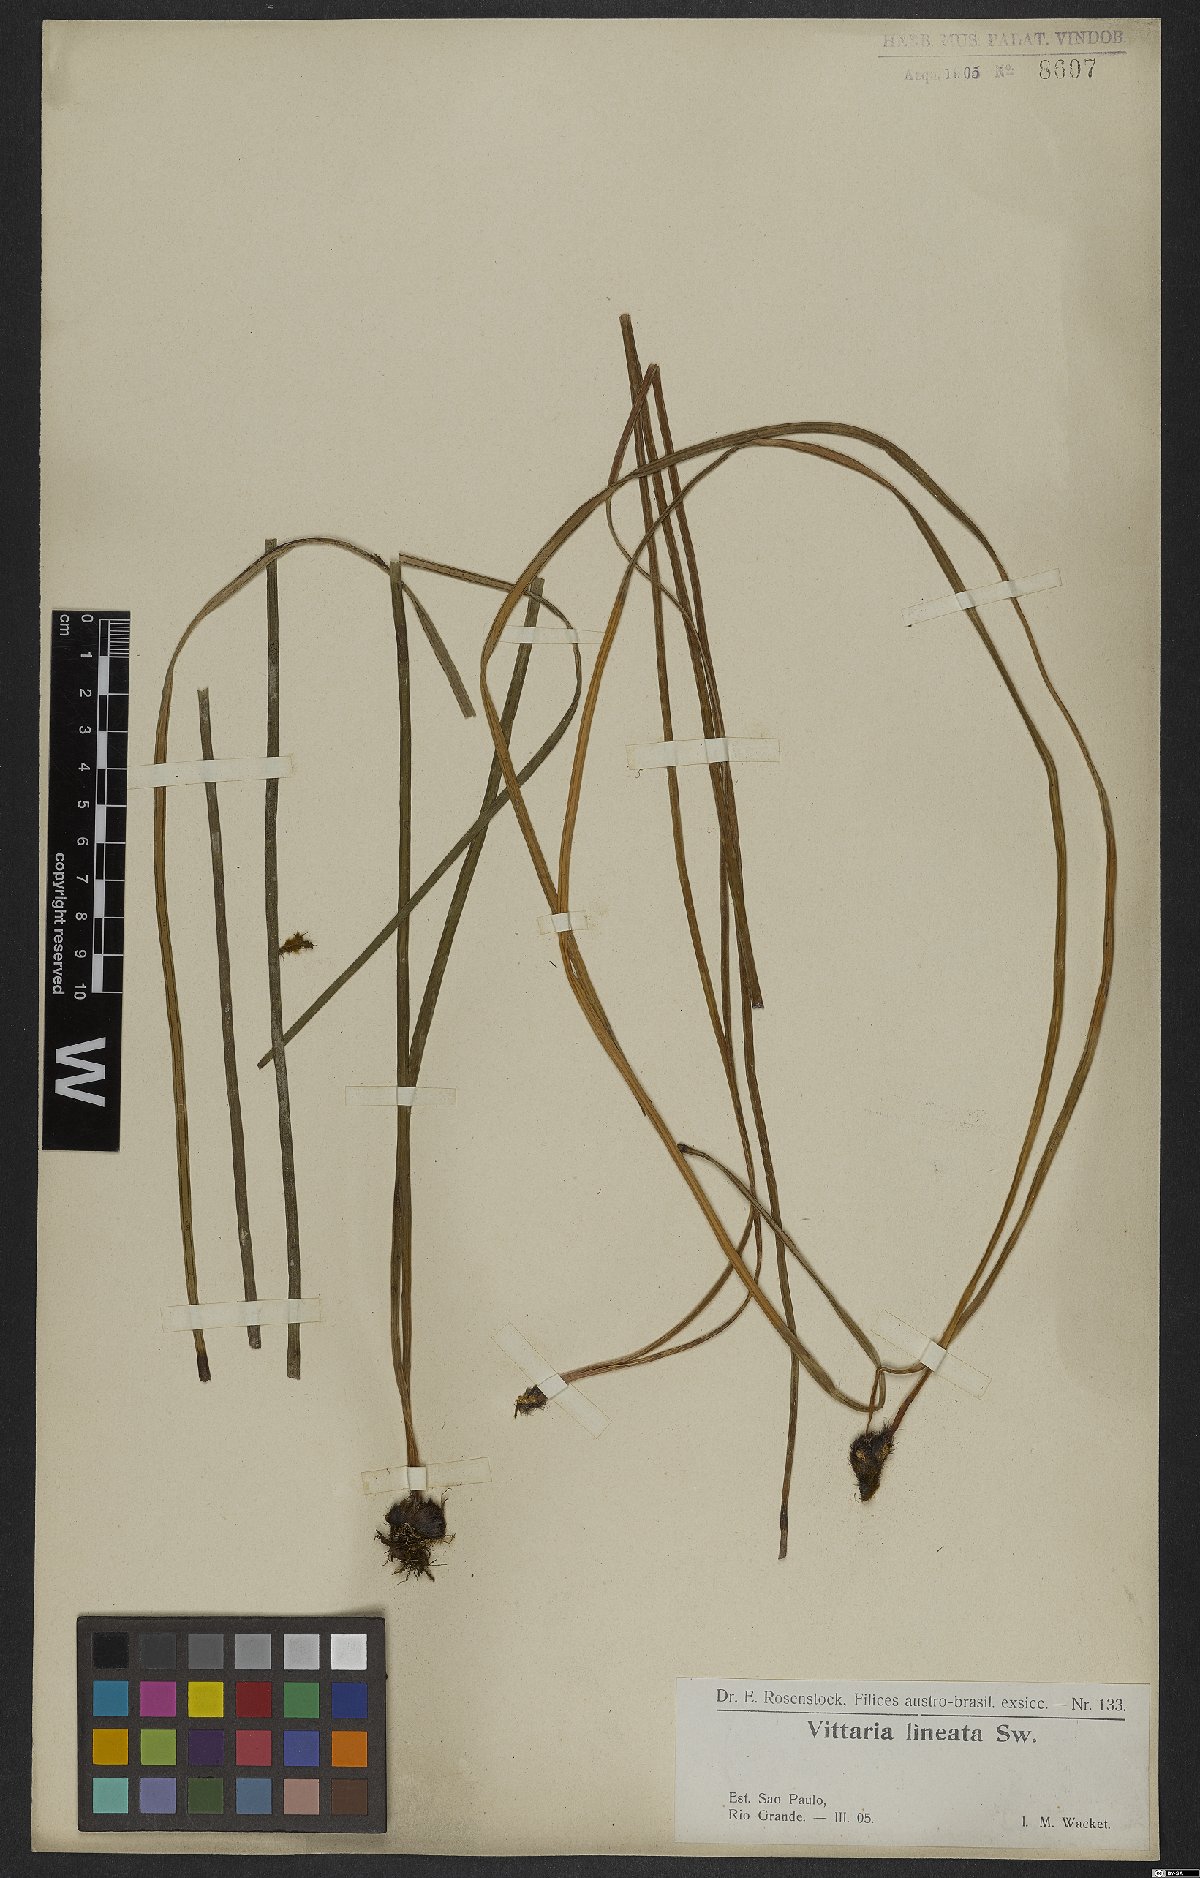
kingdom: Plantae
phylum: Tracheophyta
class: Polypodiopsida
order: Polypodiales
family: Pteridaceae
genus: Vittaria
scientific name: Vittaria lineata
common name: Shoestring fern
